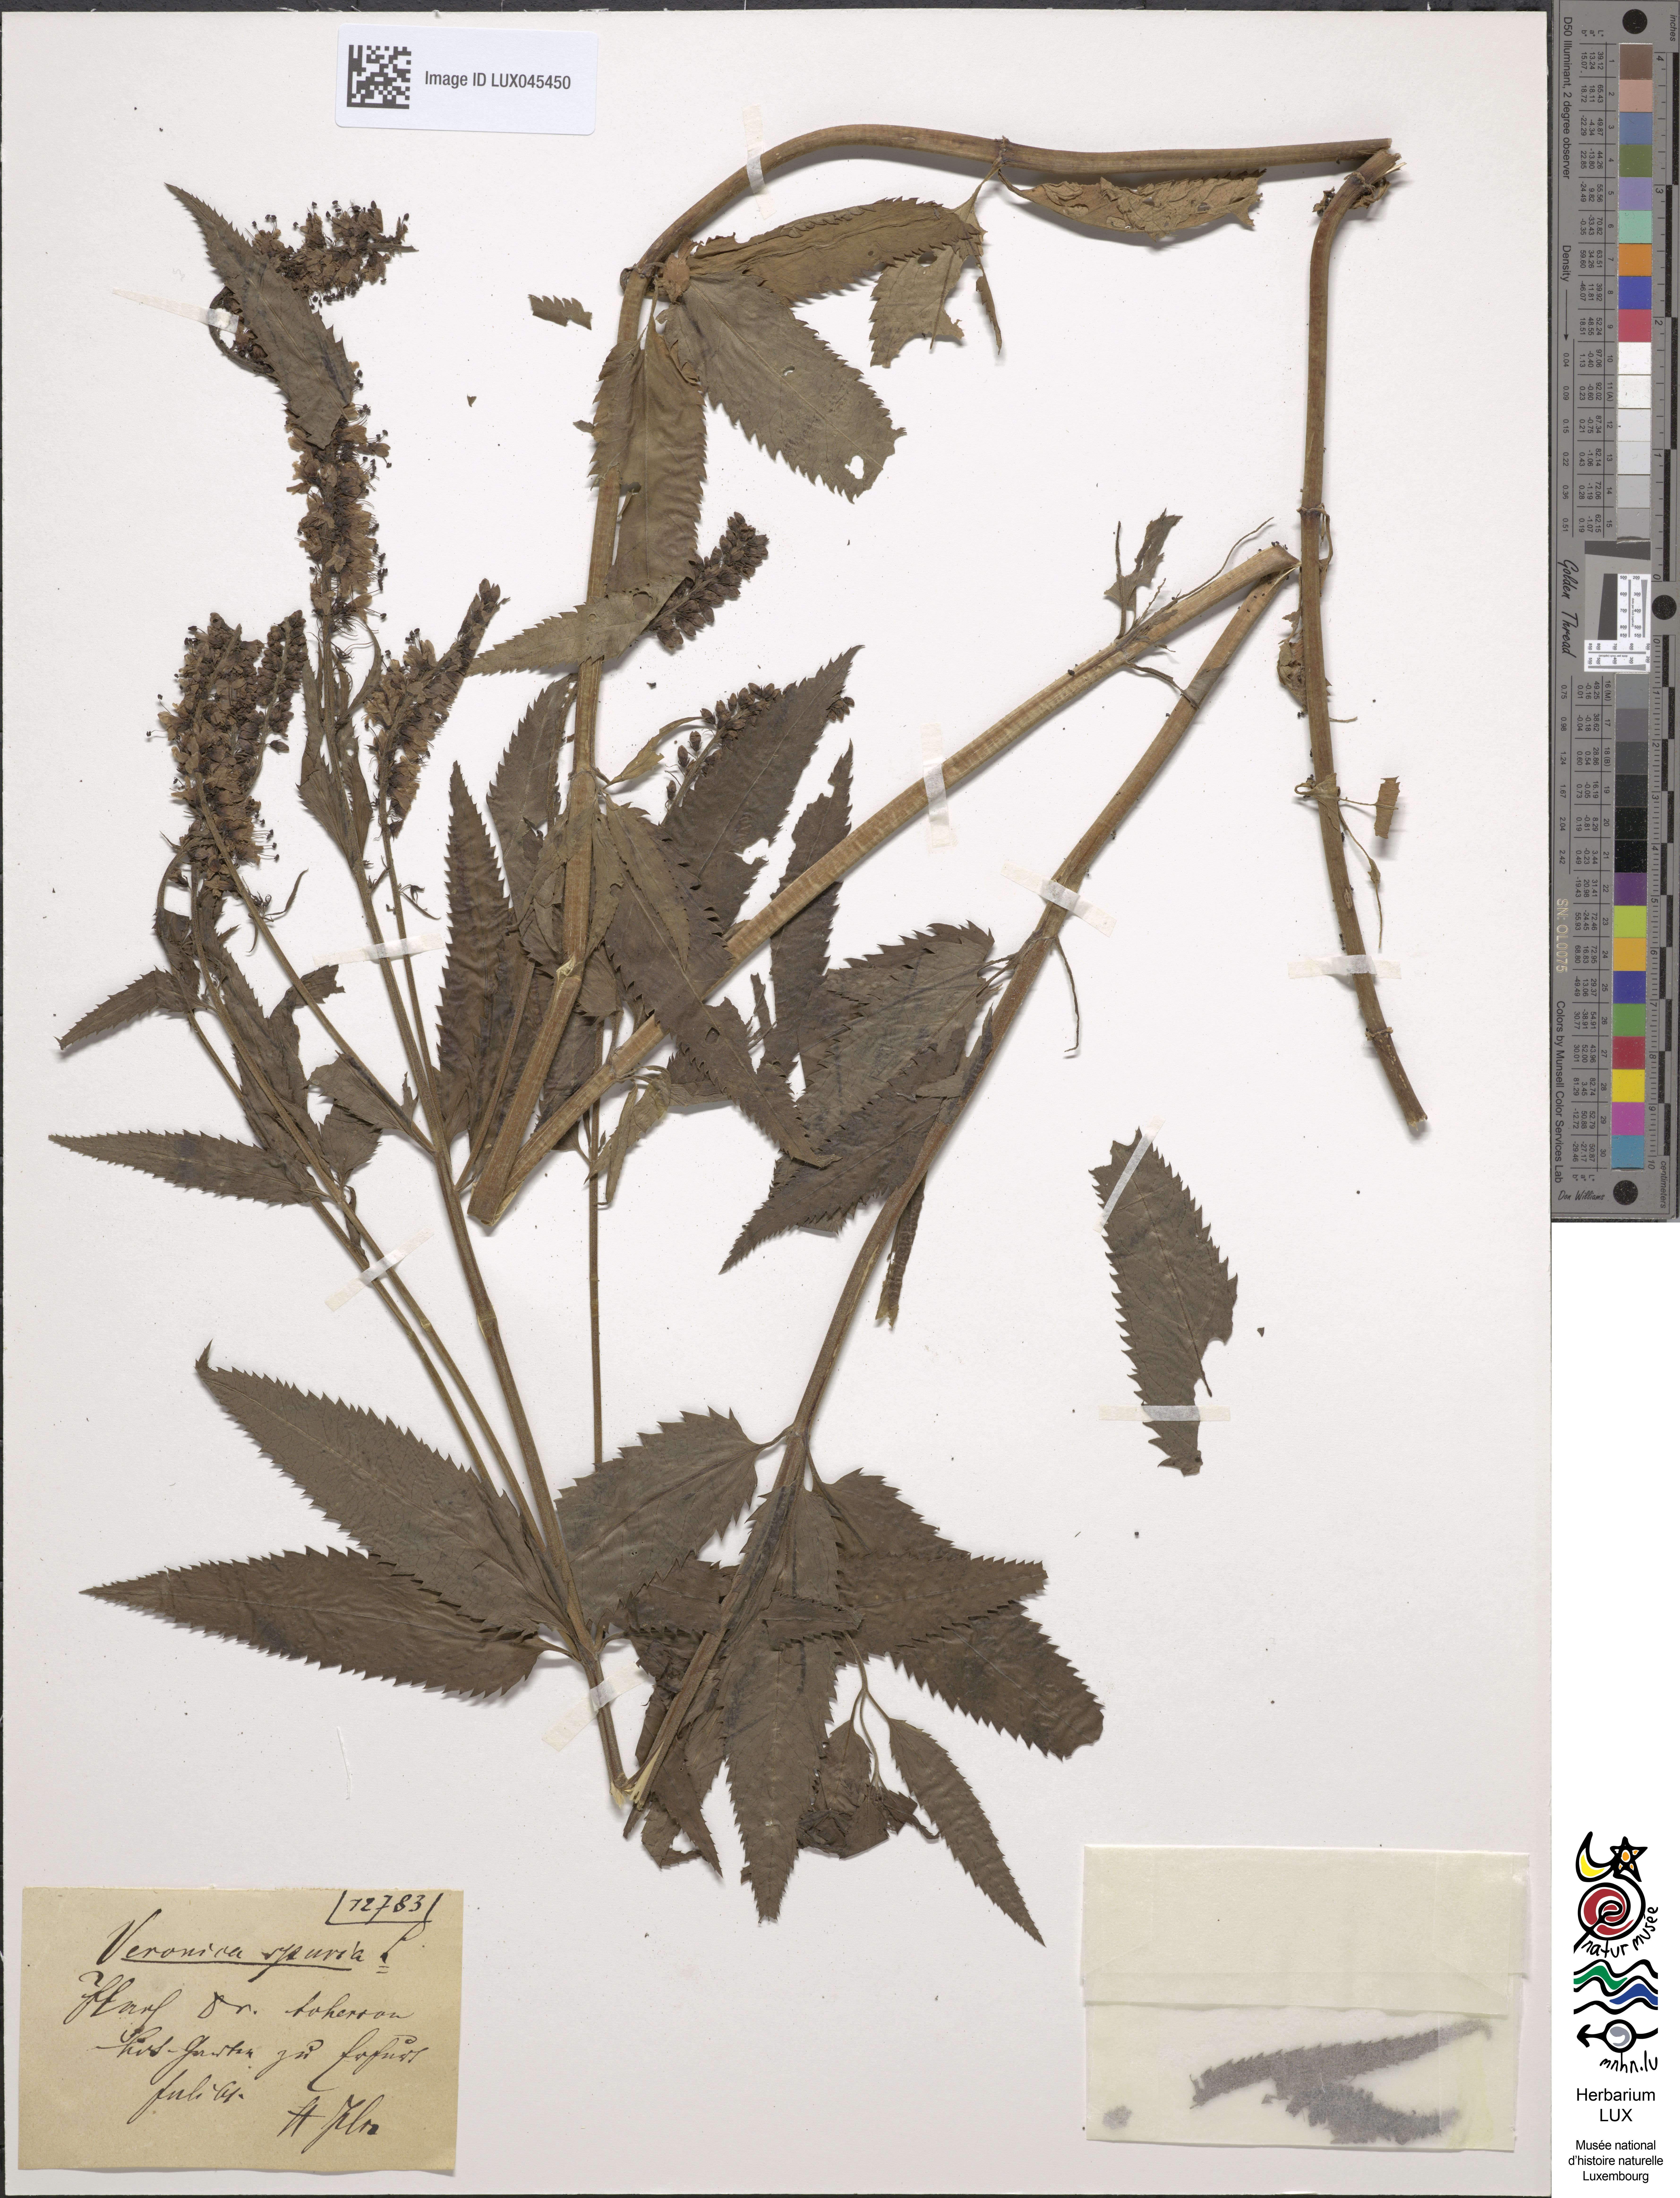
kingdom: Plantae
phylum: Tracheophyta
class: Magnoliopsida
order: Lamiales
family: Plantaginaceae
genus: Veronica
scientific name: Veronica spuria
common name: Bastard speedwell
